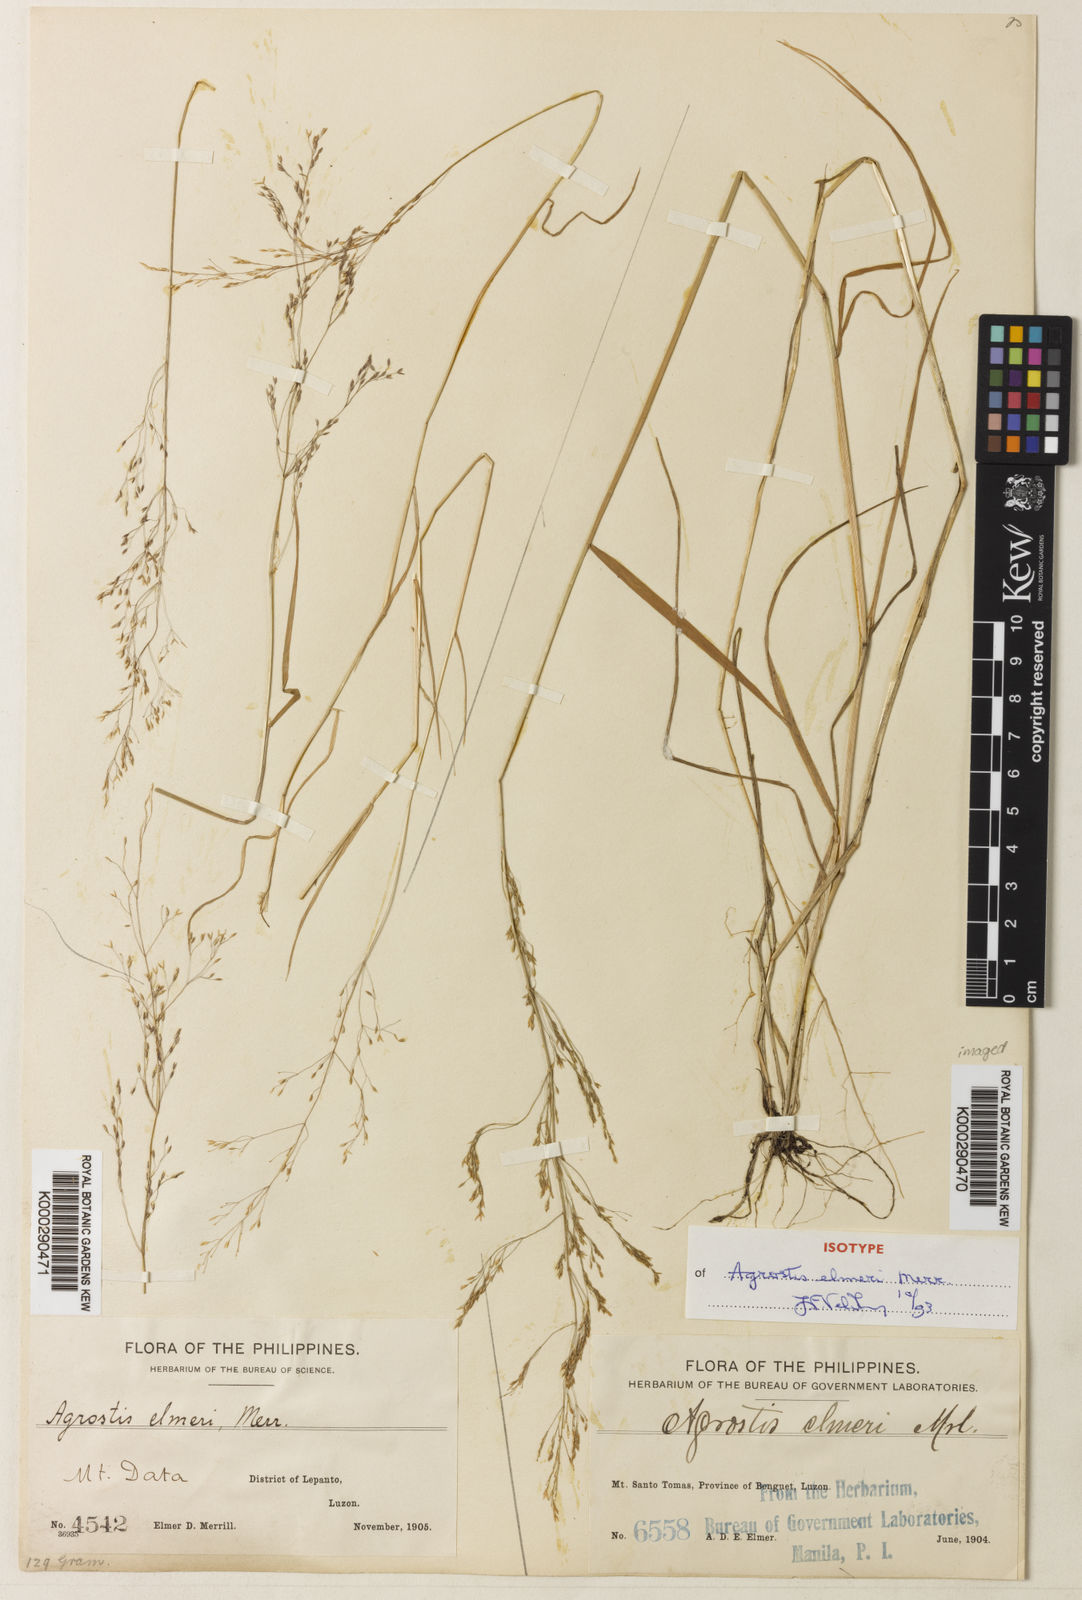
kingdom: Plantae
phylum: Tracheophyta
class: Liliopsida
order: Poales
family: Poaceae
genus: Agrostis
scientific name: Agrostis infirma
